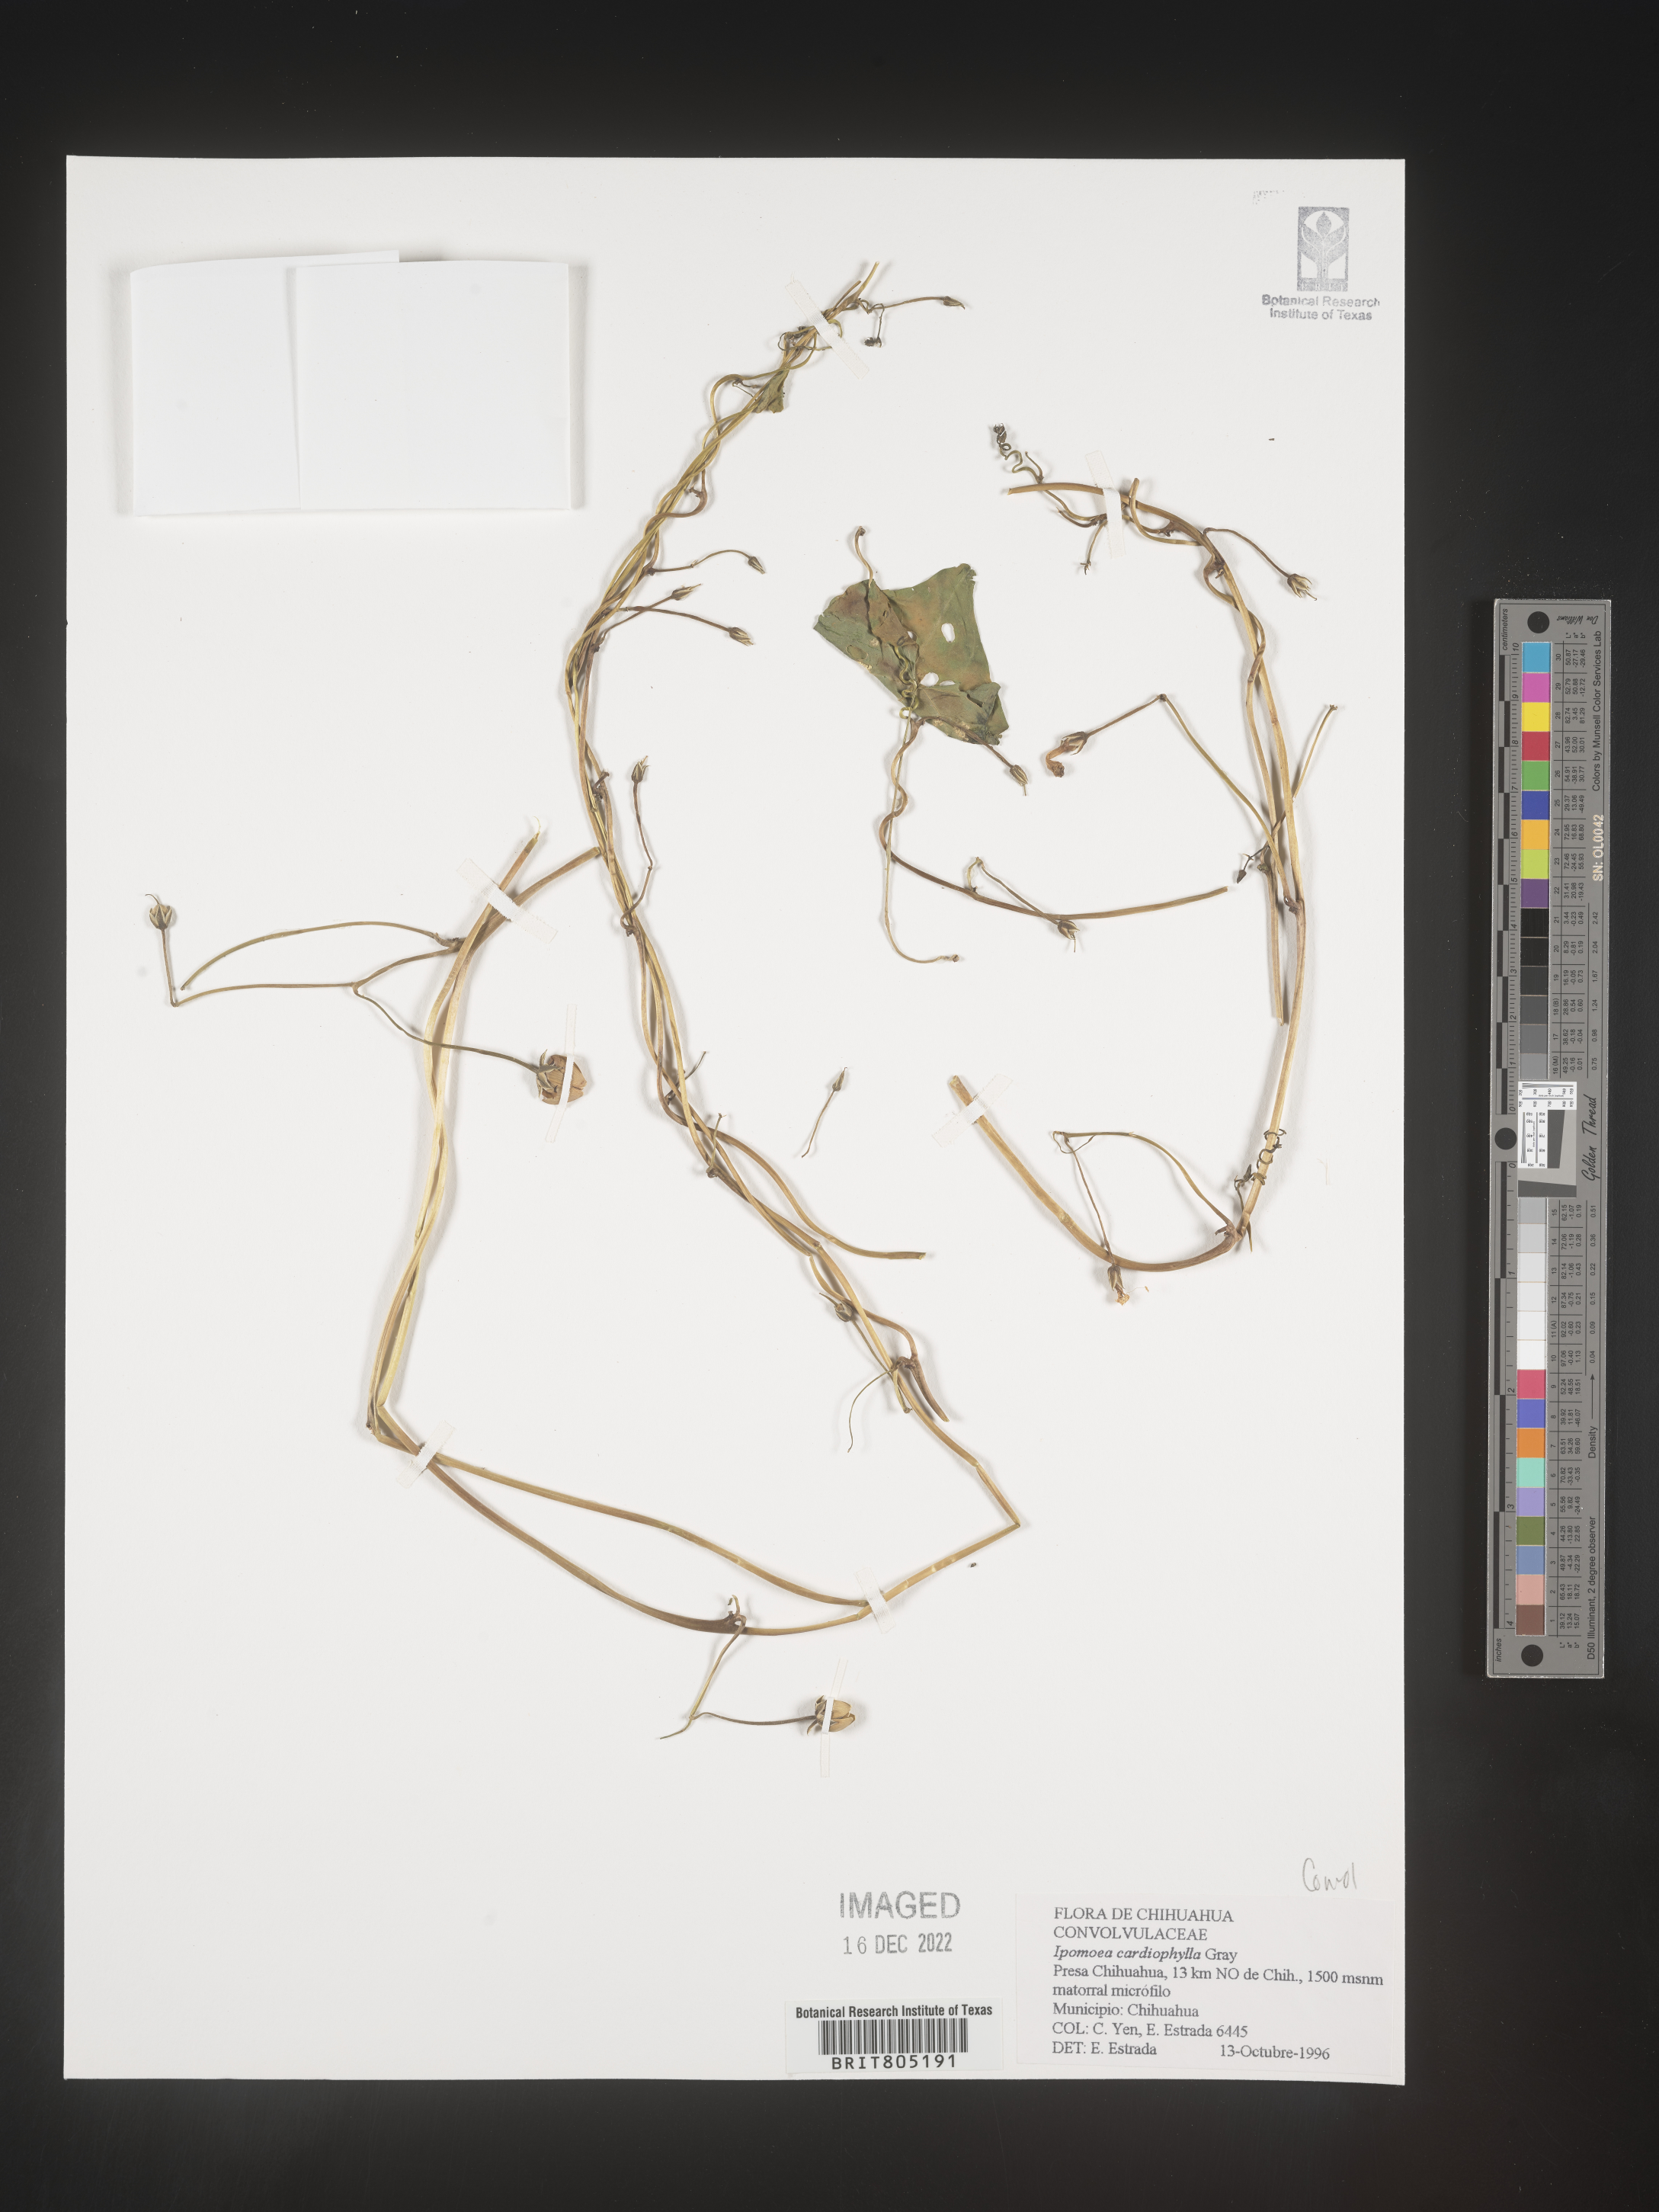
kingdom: Plantae
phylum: Tracheophyta
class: Magnoliopsida
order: Solanales
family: Convolvulaceae
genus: Ipomoea
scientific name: Ipomoea
